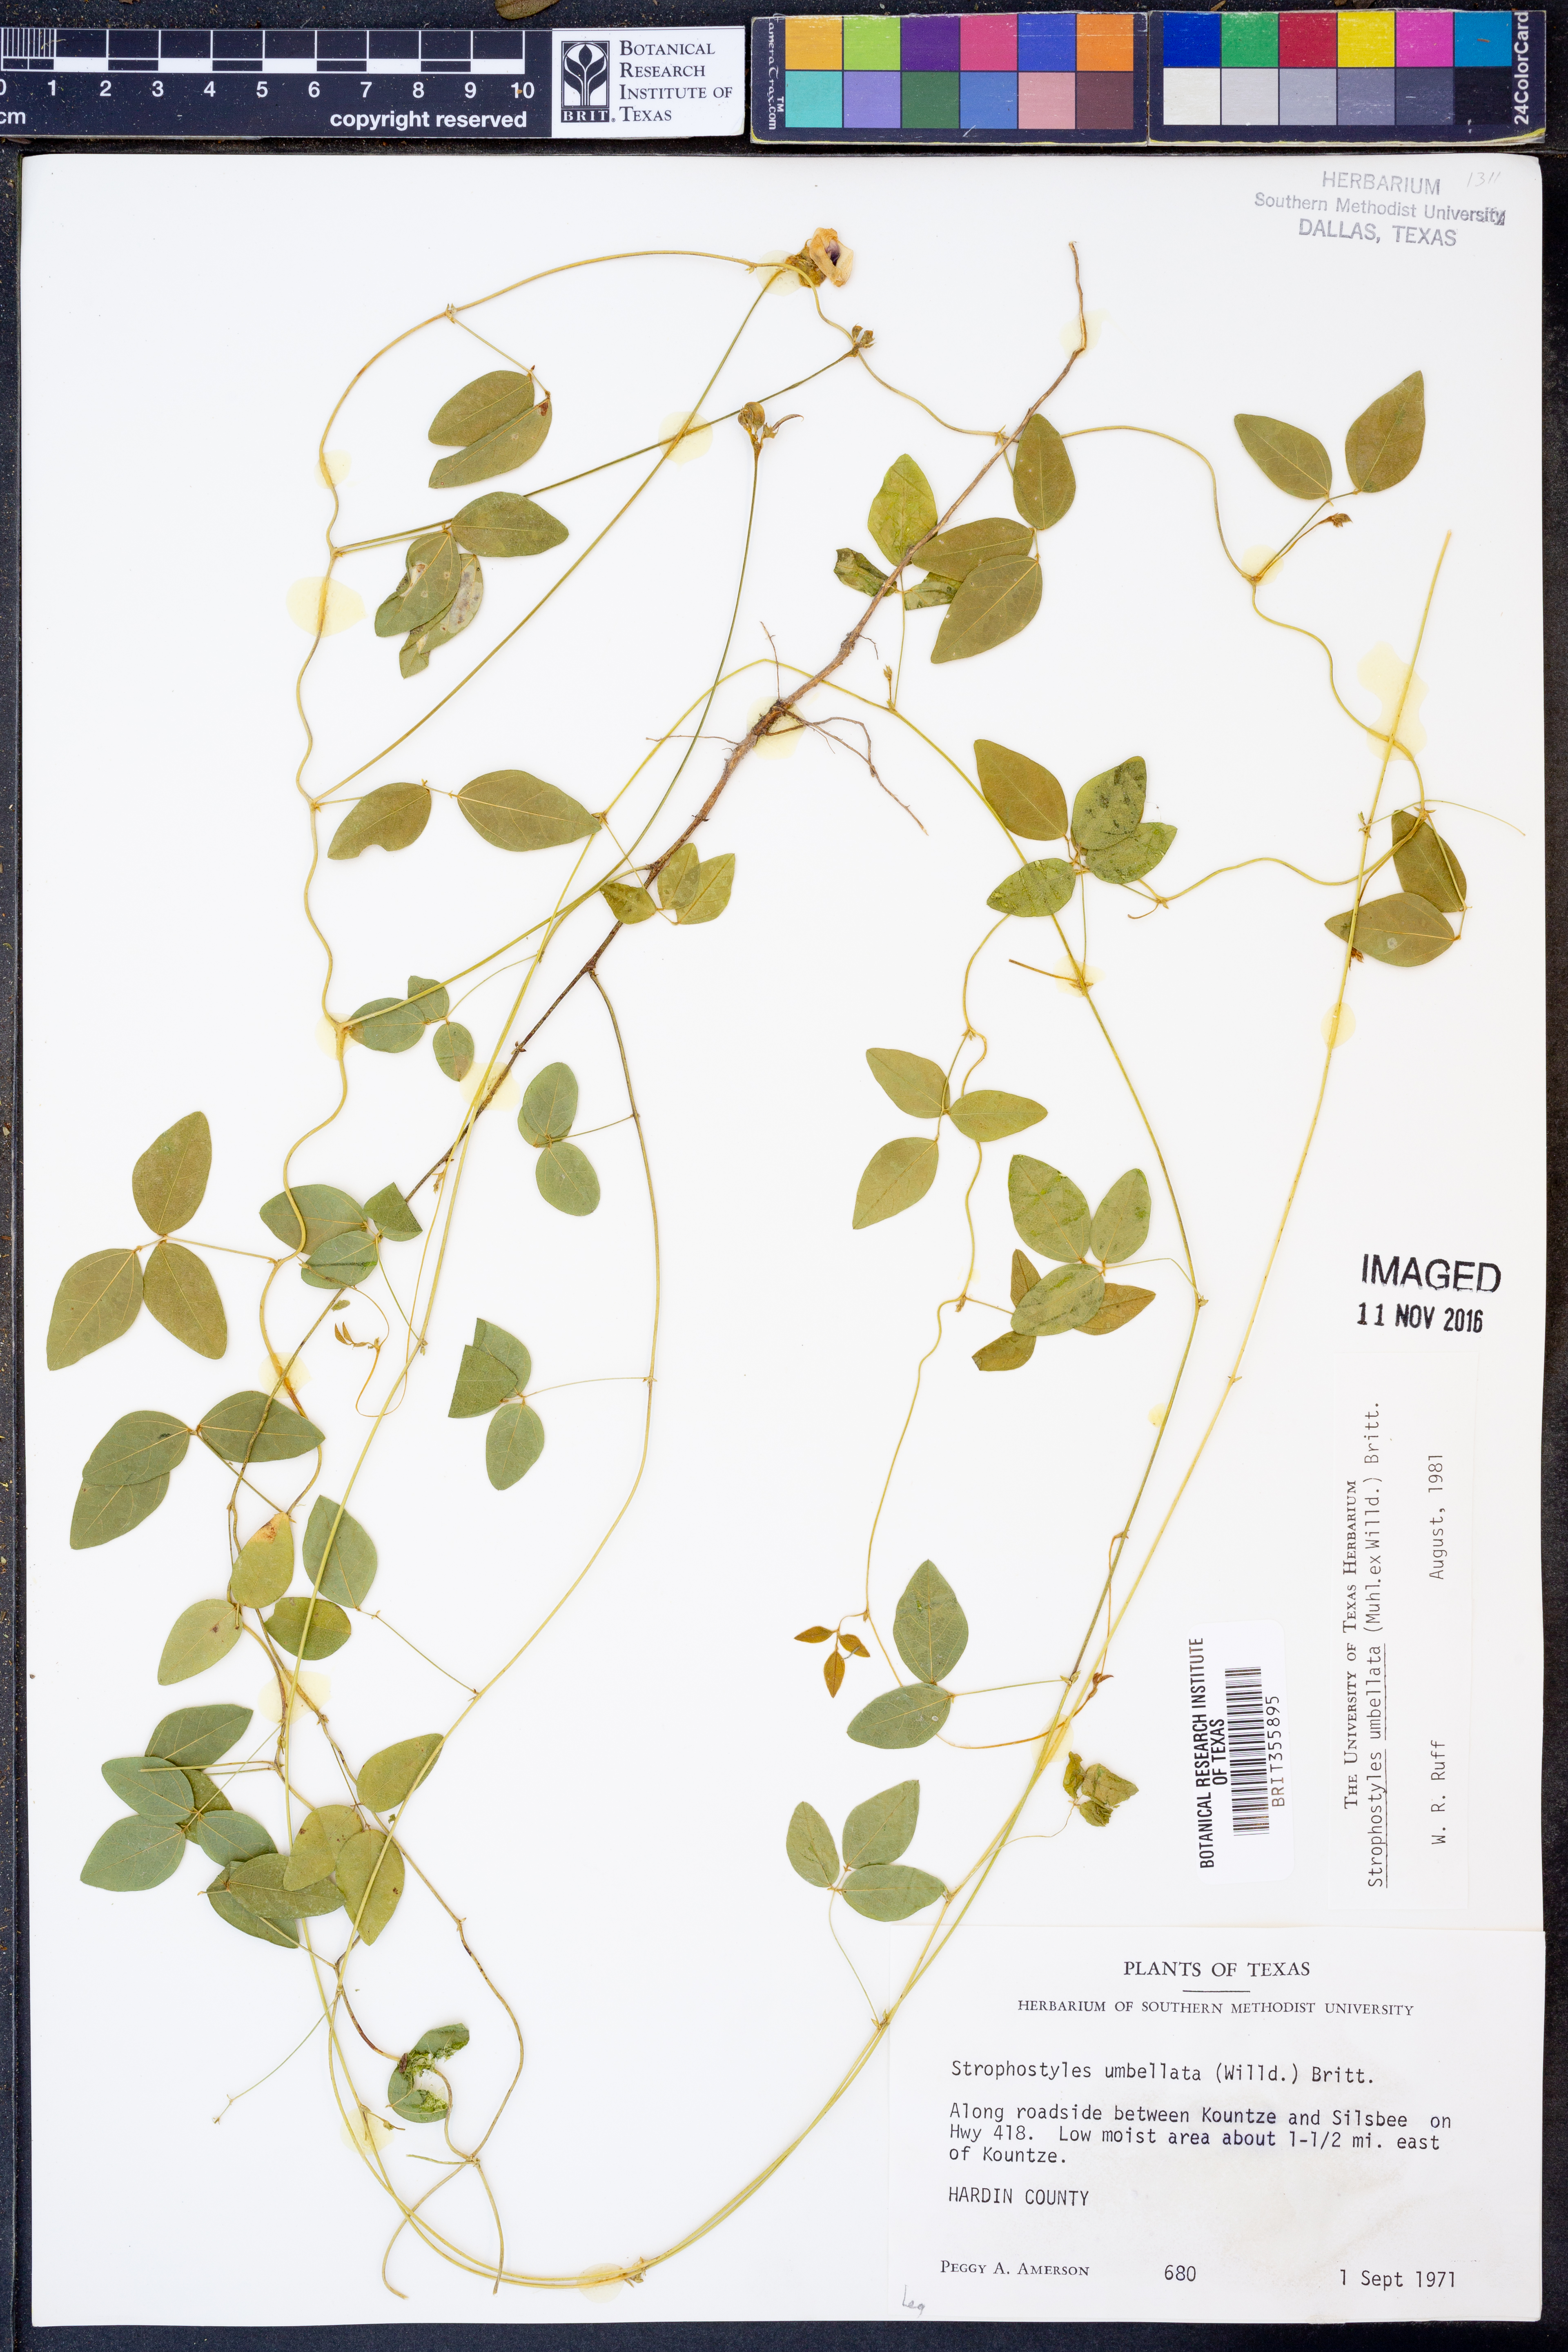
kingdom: Plantae
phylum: Tracheophyta
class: Magnoliopsida
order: Fabales
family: Fabaceae
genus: Strophostyles
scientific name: Strophostyles umbellata
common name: Perennial wild bean
